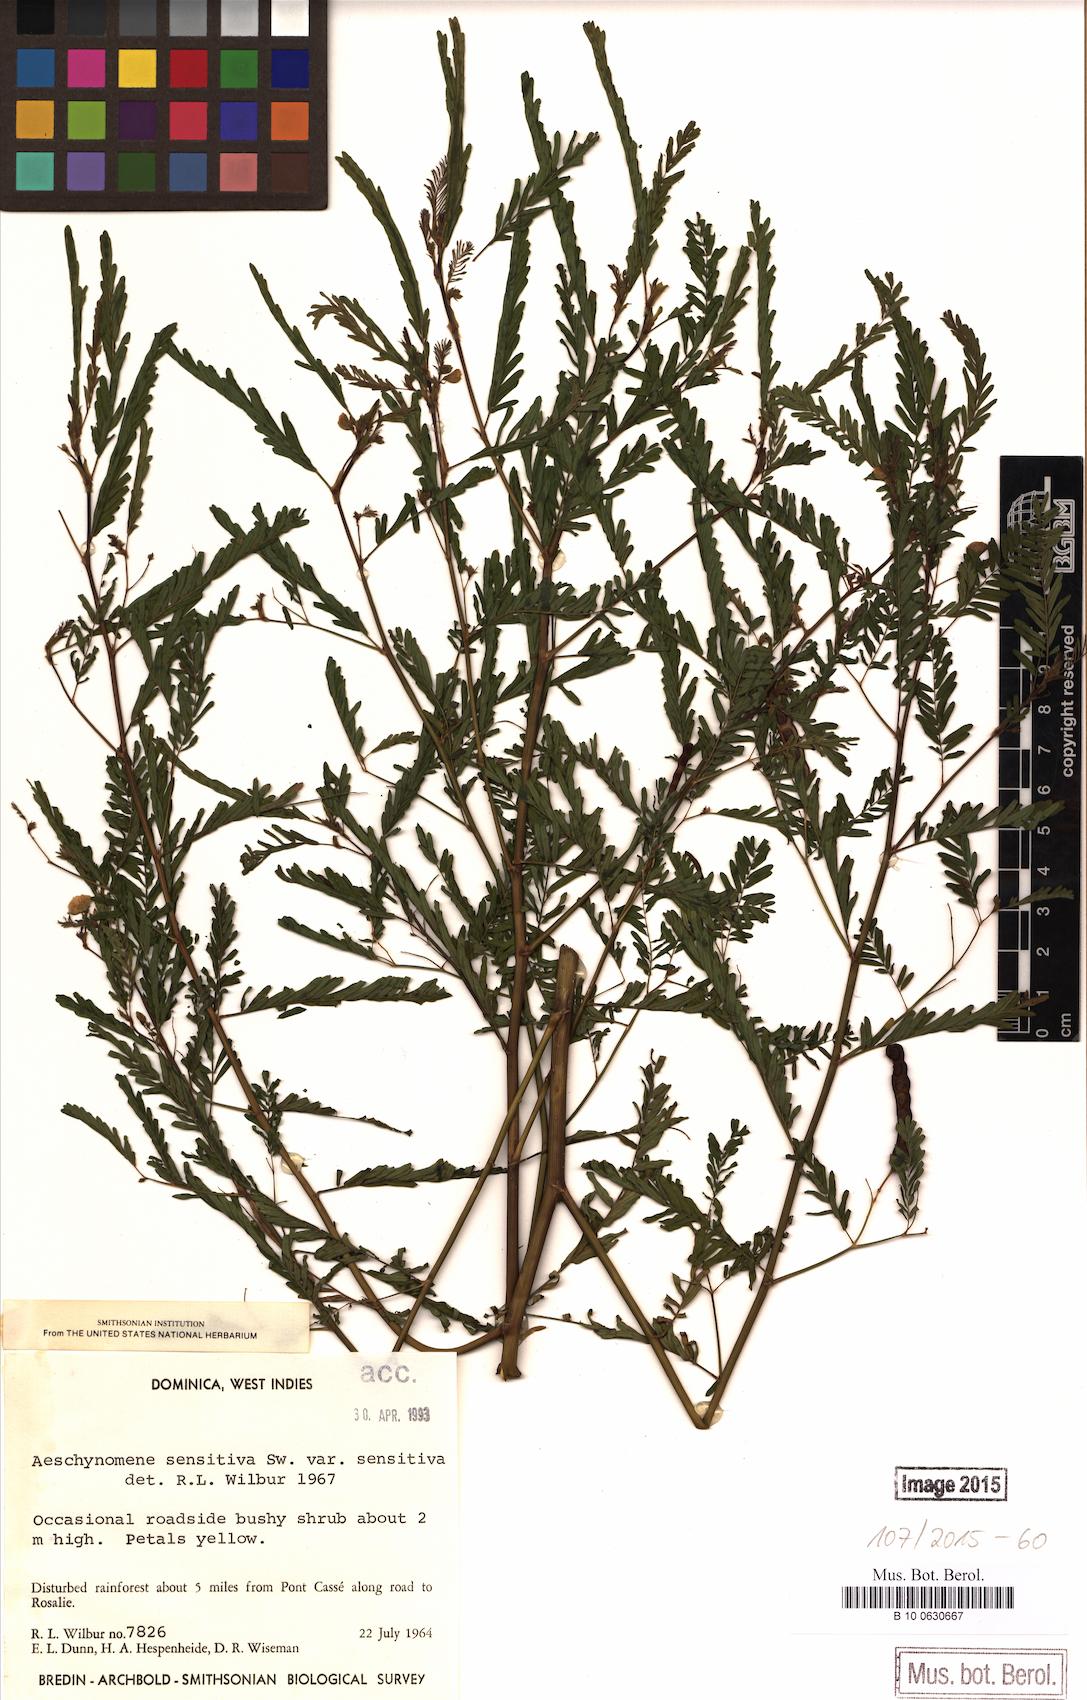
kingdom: Plantae
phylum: Tracheophyta
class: Magnoliopsida
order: Fabales
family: Fabaceae
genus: Aeschynomene
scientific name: Aeschynomene sensitiva
